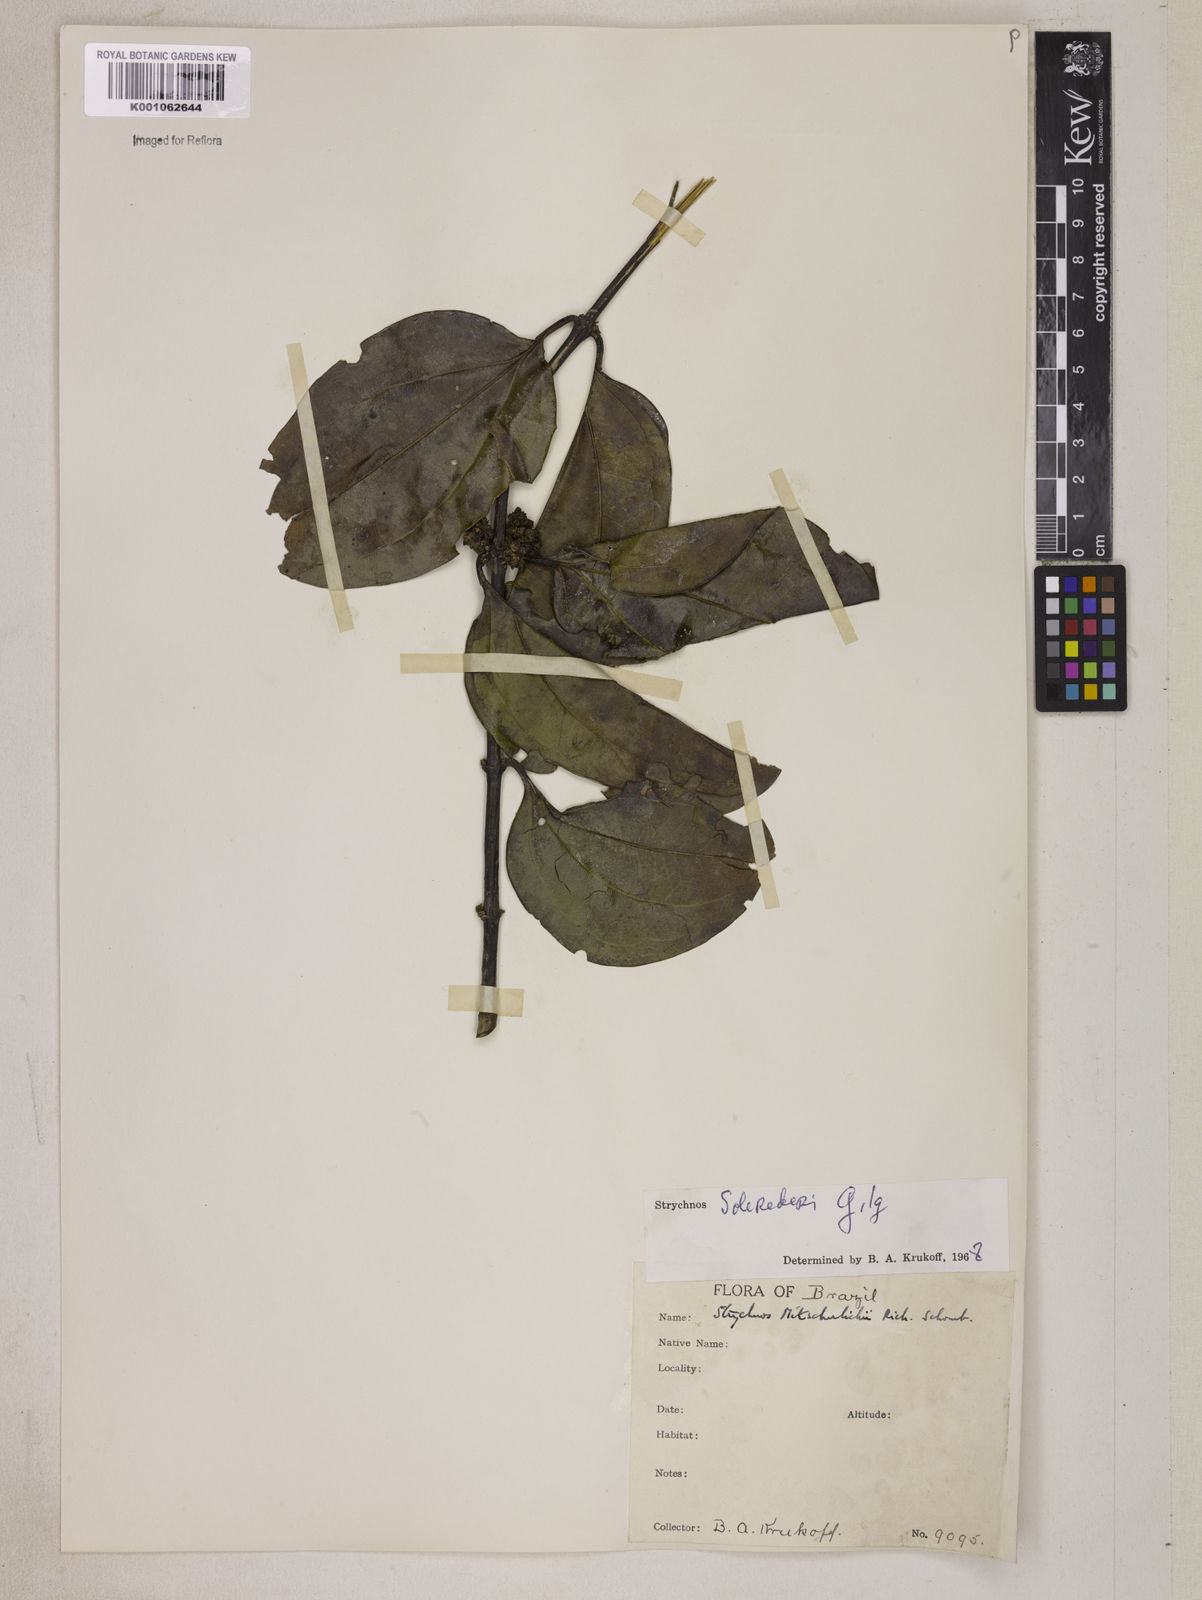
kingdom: Plantae
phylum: Tracheophyta
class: Magnoliopsida
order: Gentianales
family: Loganiaceae
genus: Strychnos
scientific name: Strychnos solerederi
